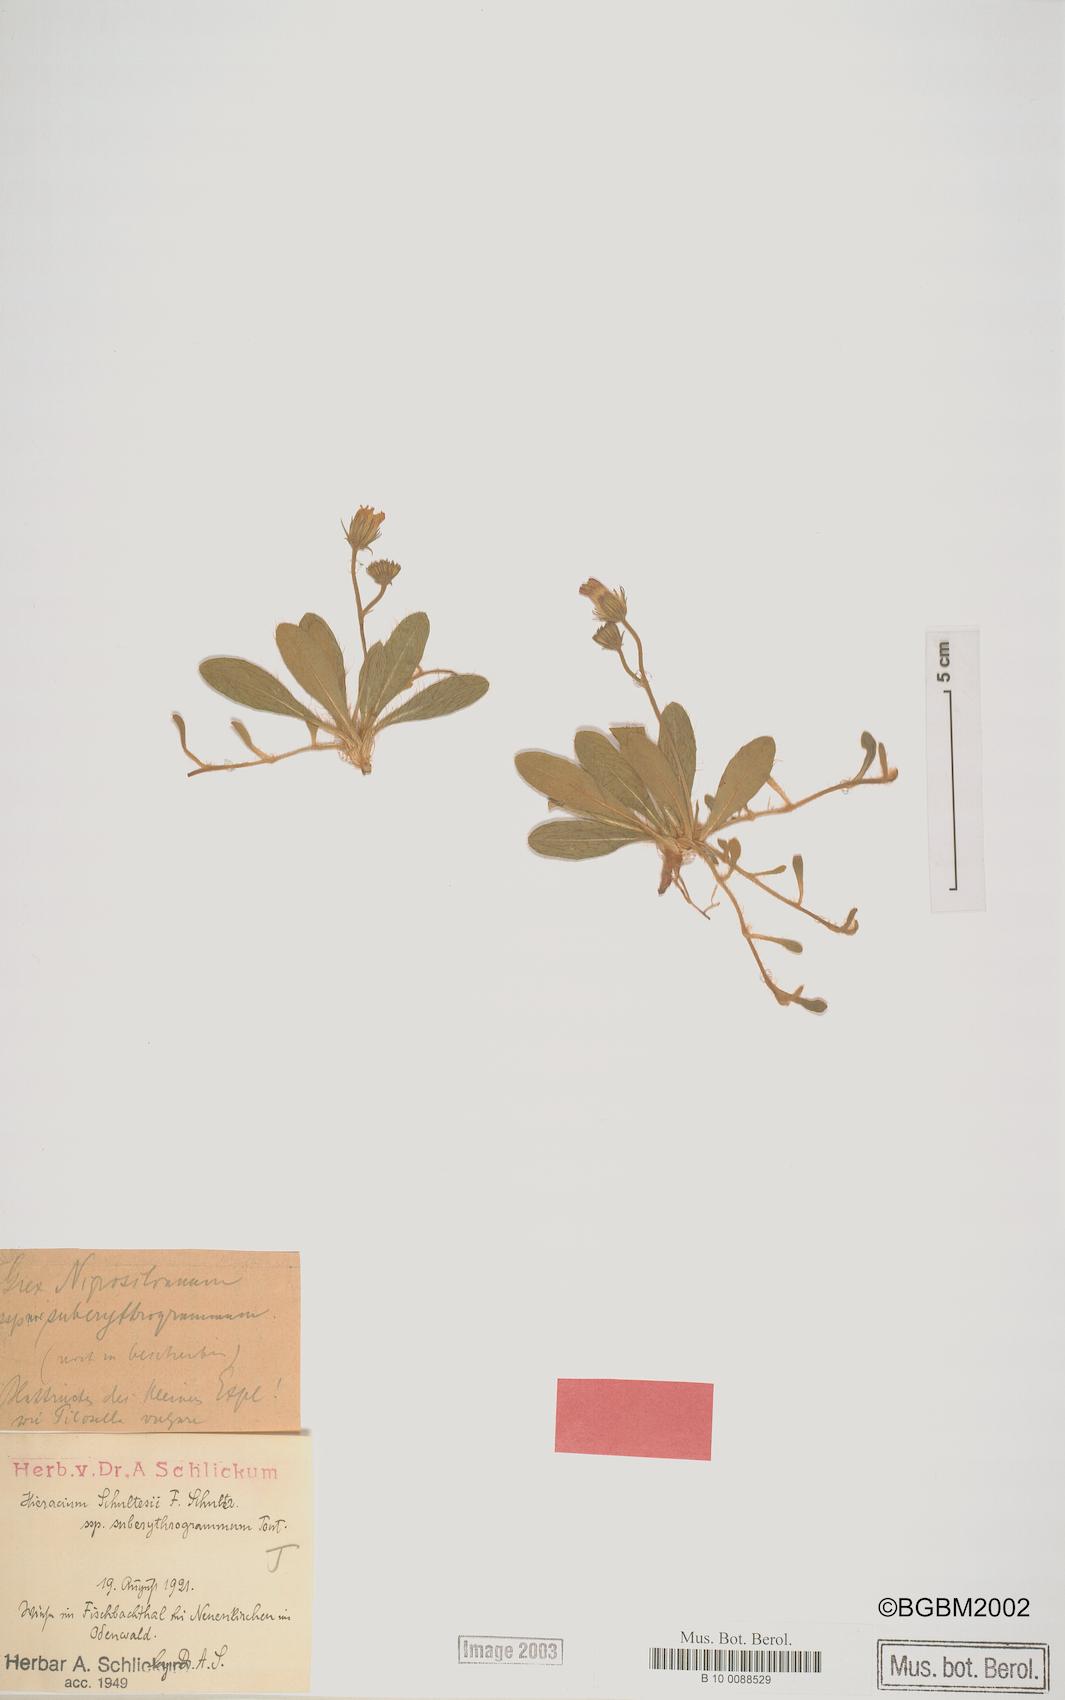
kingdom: Plantae
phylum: Tracheophyta
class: Magnoliopsida
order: Asterales
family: Asteraceae
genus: Pilosella
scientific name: Pilosella schultesii
